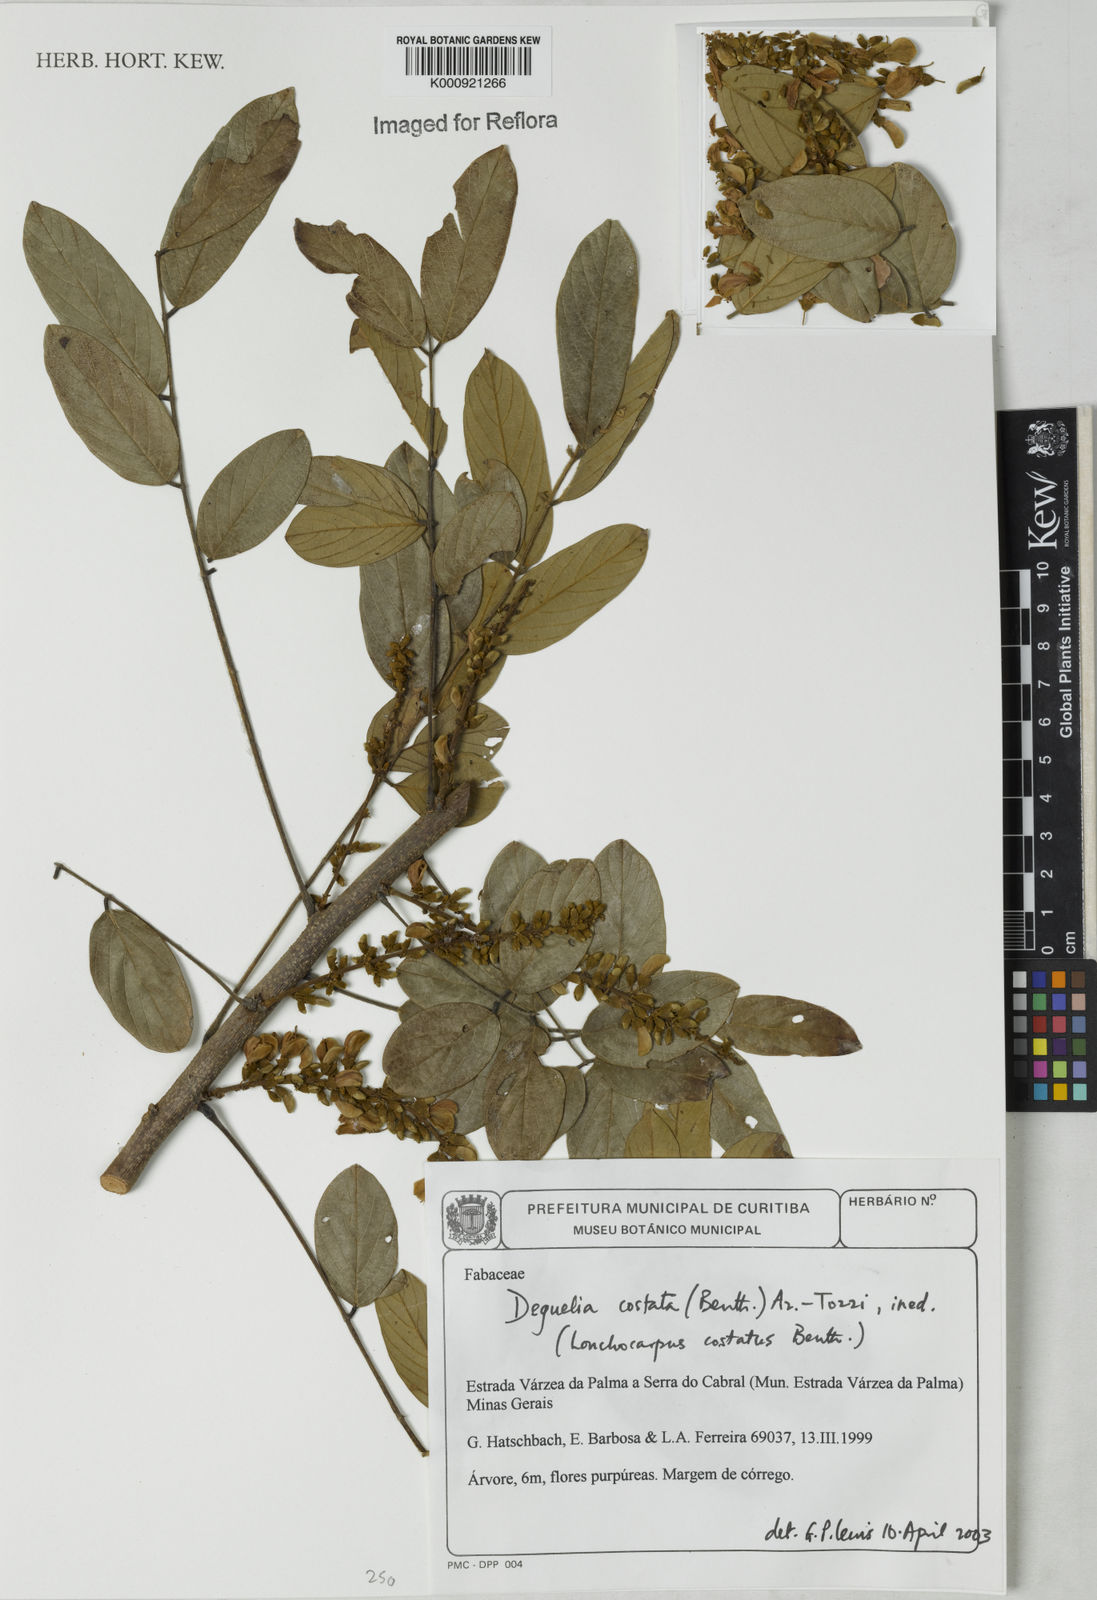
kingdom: Plantae
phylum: Tracheophyta
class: Magnoliopsida
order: Fabales
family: Fabaceae
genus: Deguelia
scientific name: Deguelia costata
